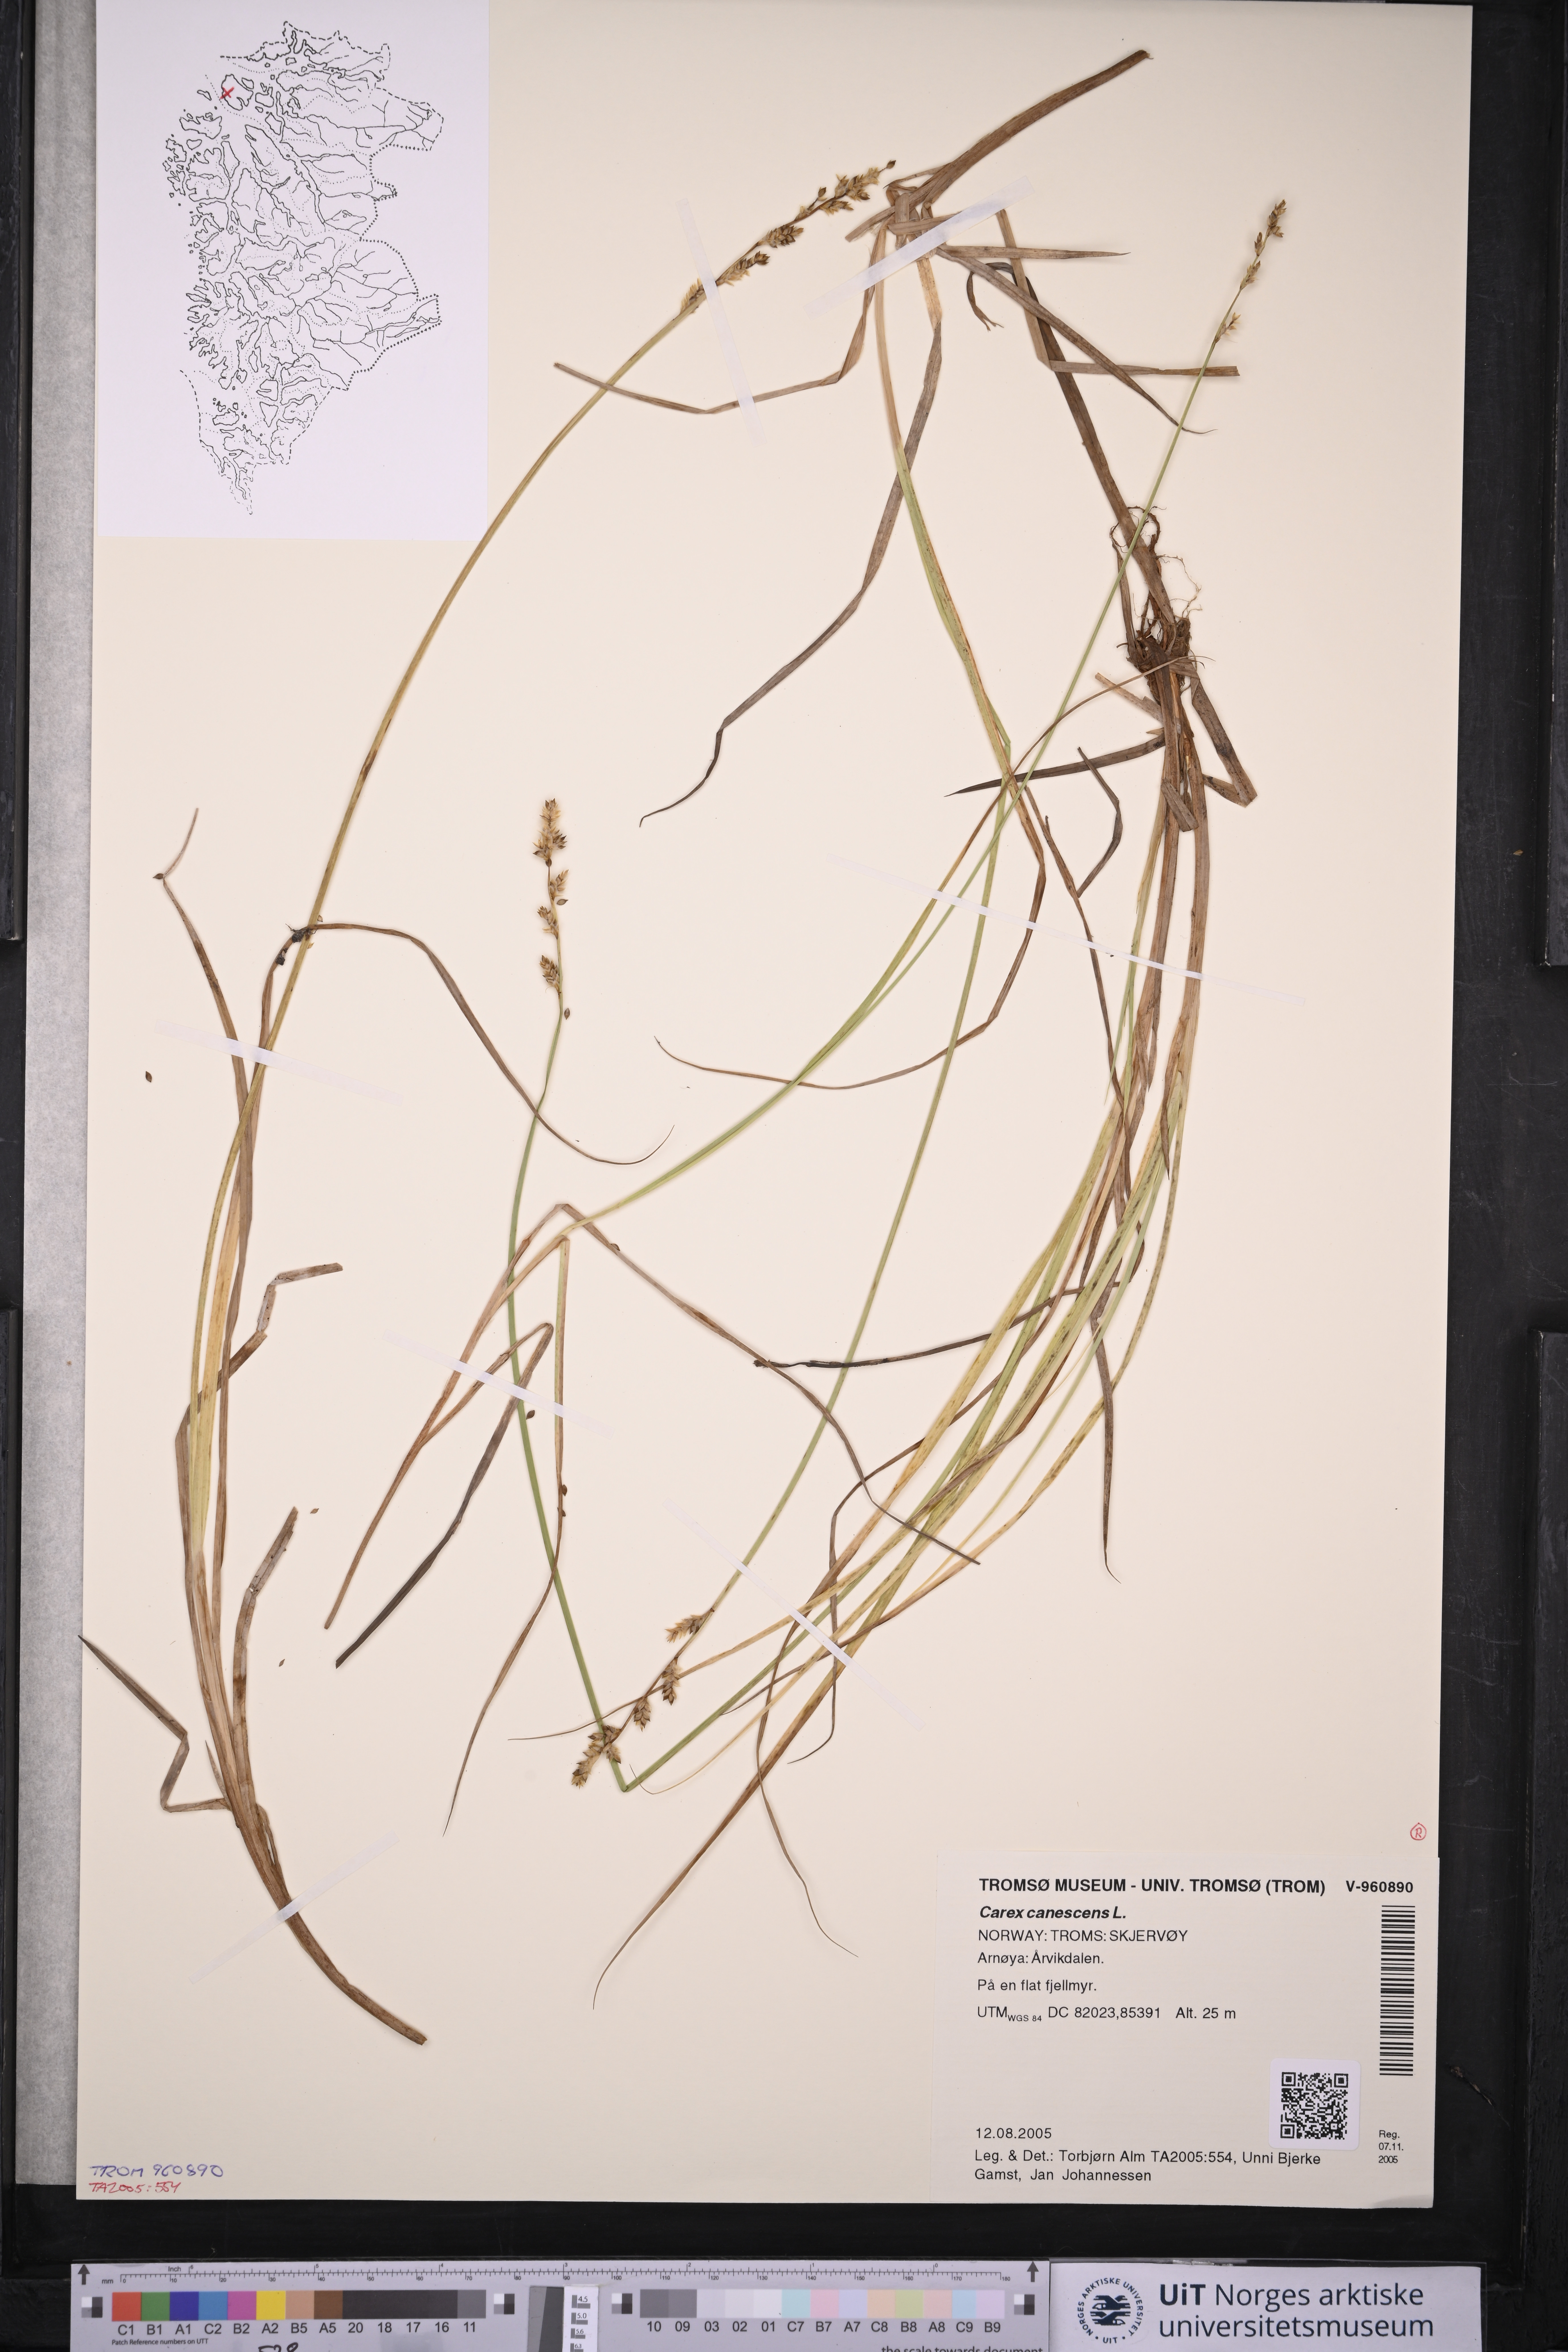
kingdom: Plantae
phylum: Tracheophyta
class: Liliopsida
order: Poales
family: Cyperaceae
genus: Carex
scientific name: Carex canescens
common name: White sedge
